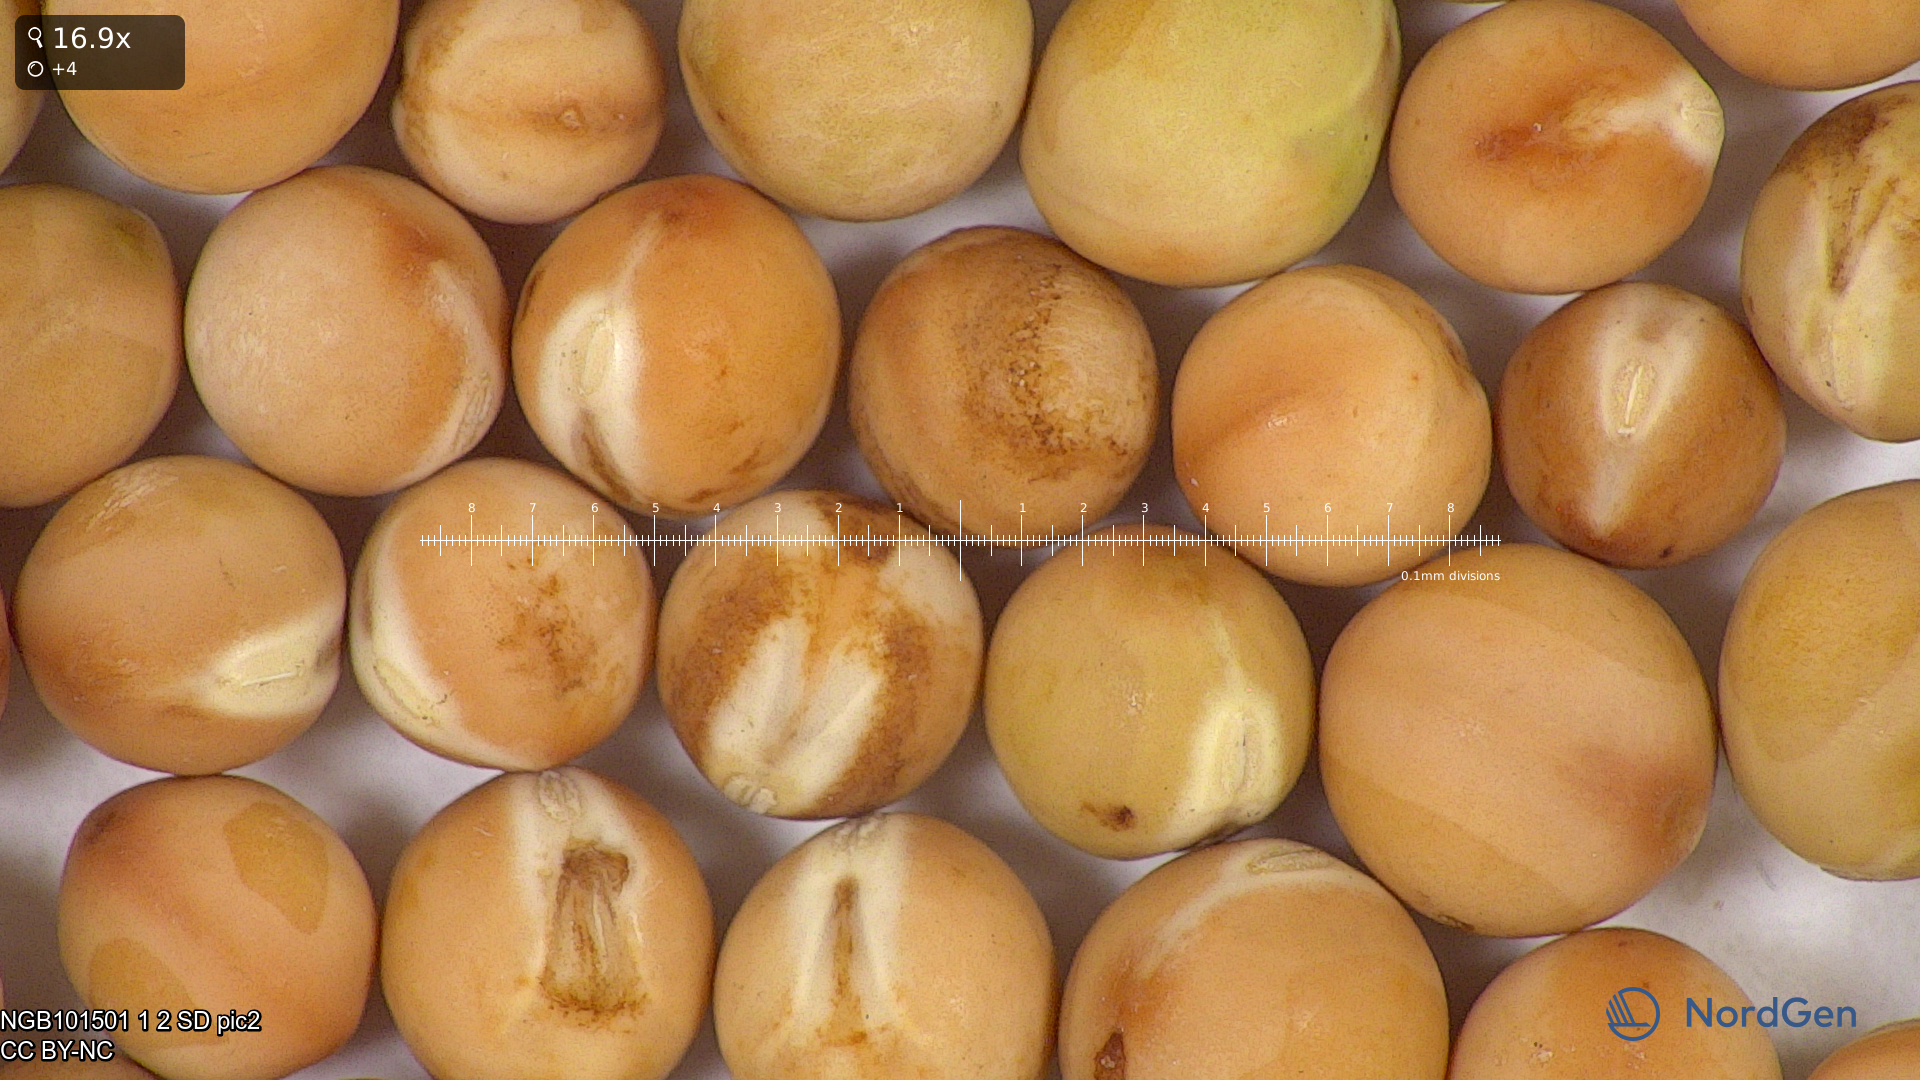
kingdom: Plantae
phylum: Tracheophyta
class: Magnoliopsida
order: Fabales
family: Fabaceae
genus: Lathyrus
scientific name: Lathyrus oleraceus
